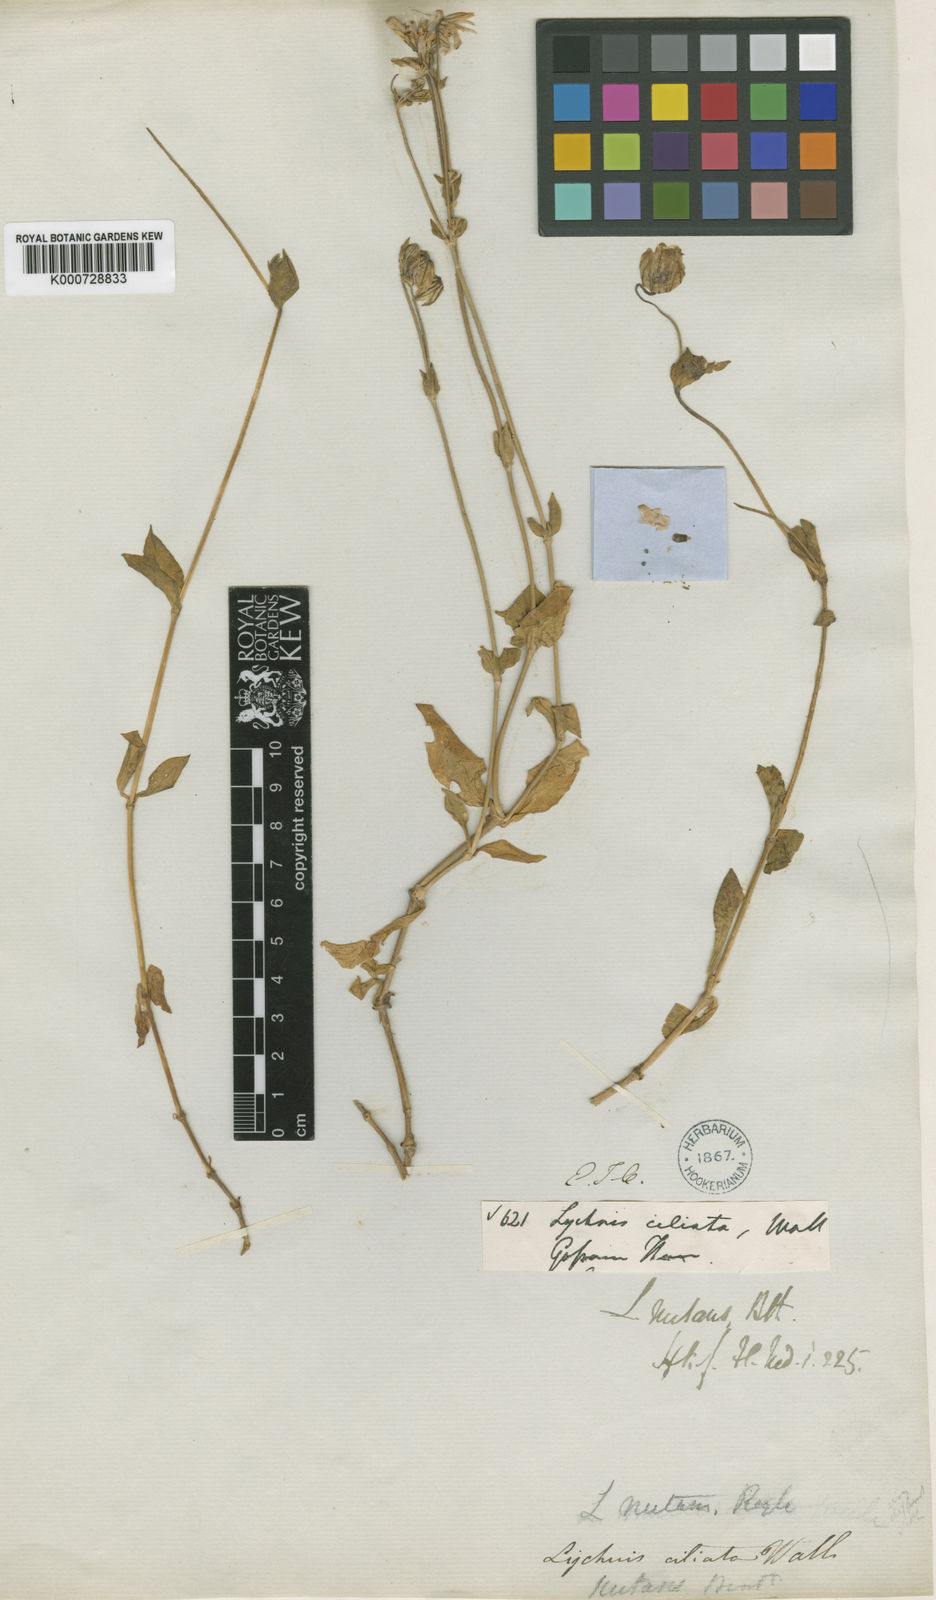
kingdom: Plantae
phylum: Tracheophyta
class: Magnoliopsida
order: Caryophyllales
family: Caryophyllaceae
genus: Silene
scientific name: Silene indica
